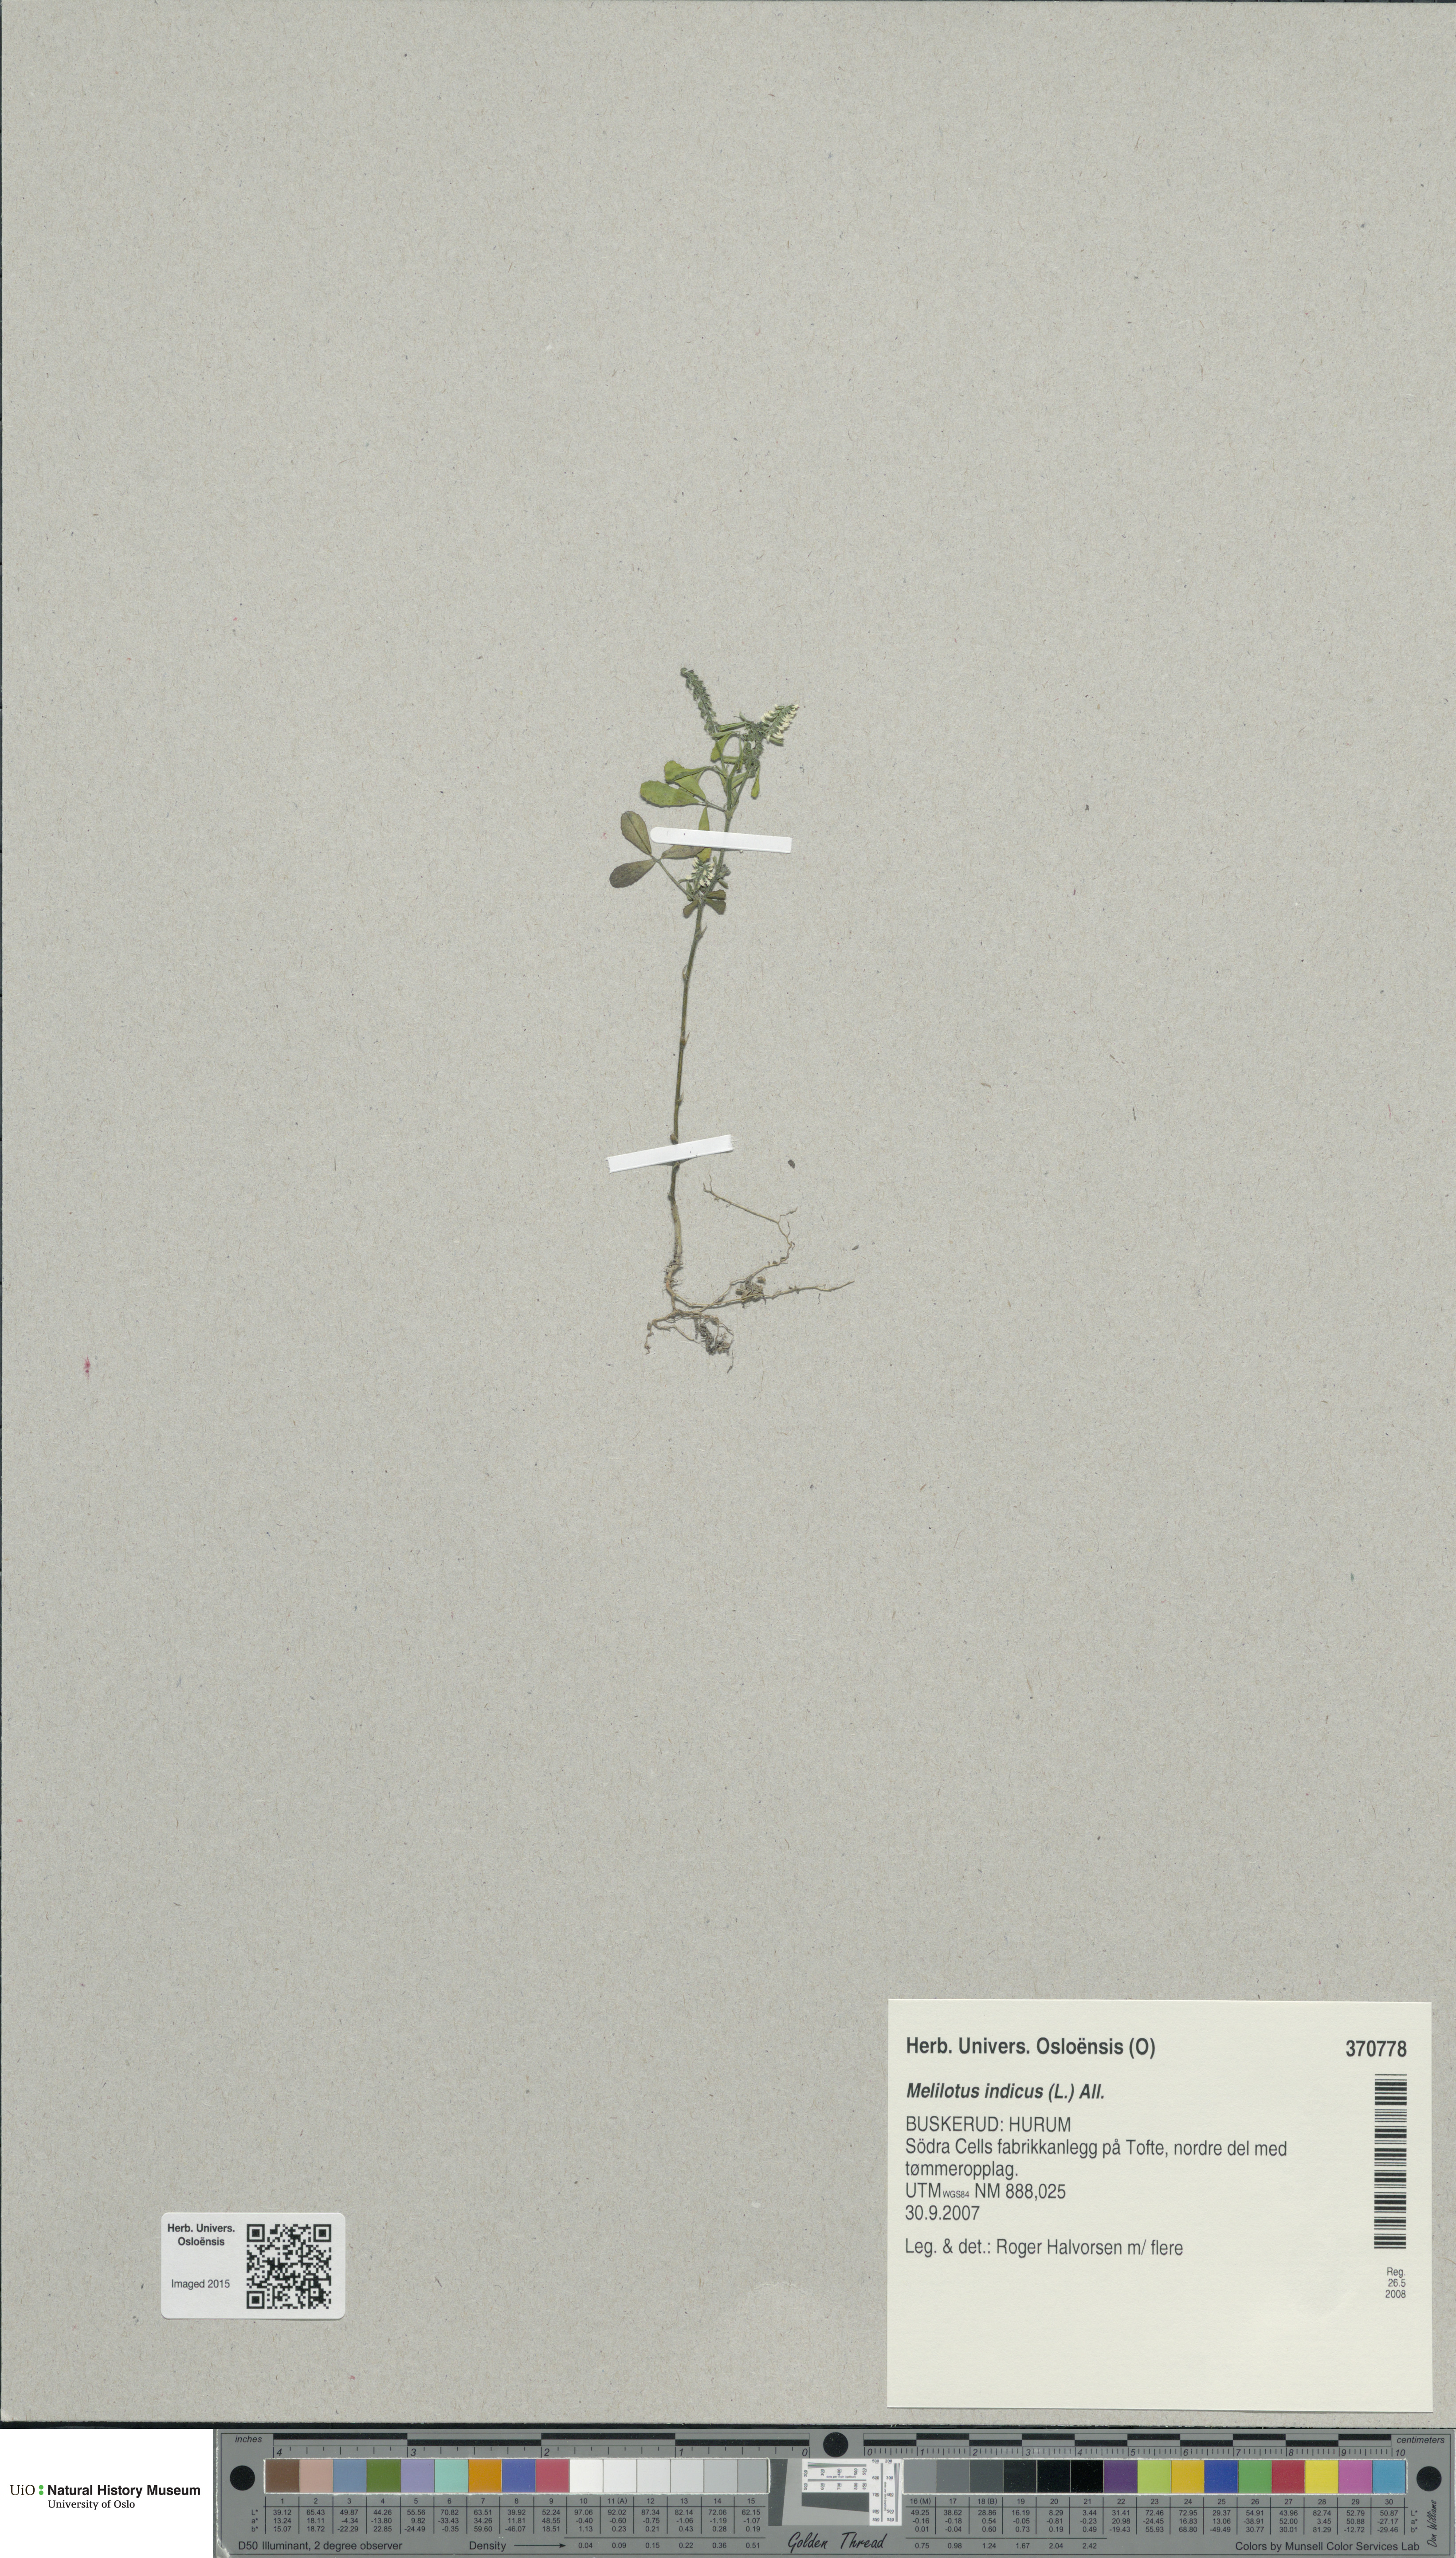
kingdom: Plantae
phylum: Tracheophyta
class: Magnoliopsida
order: Fabales
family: Fabaceae
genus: Melilotus
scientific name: Melilotus indicus
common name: Small melilot
